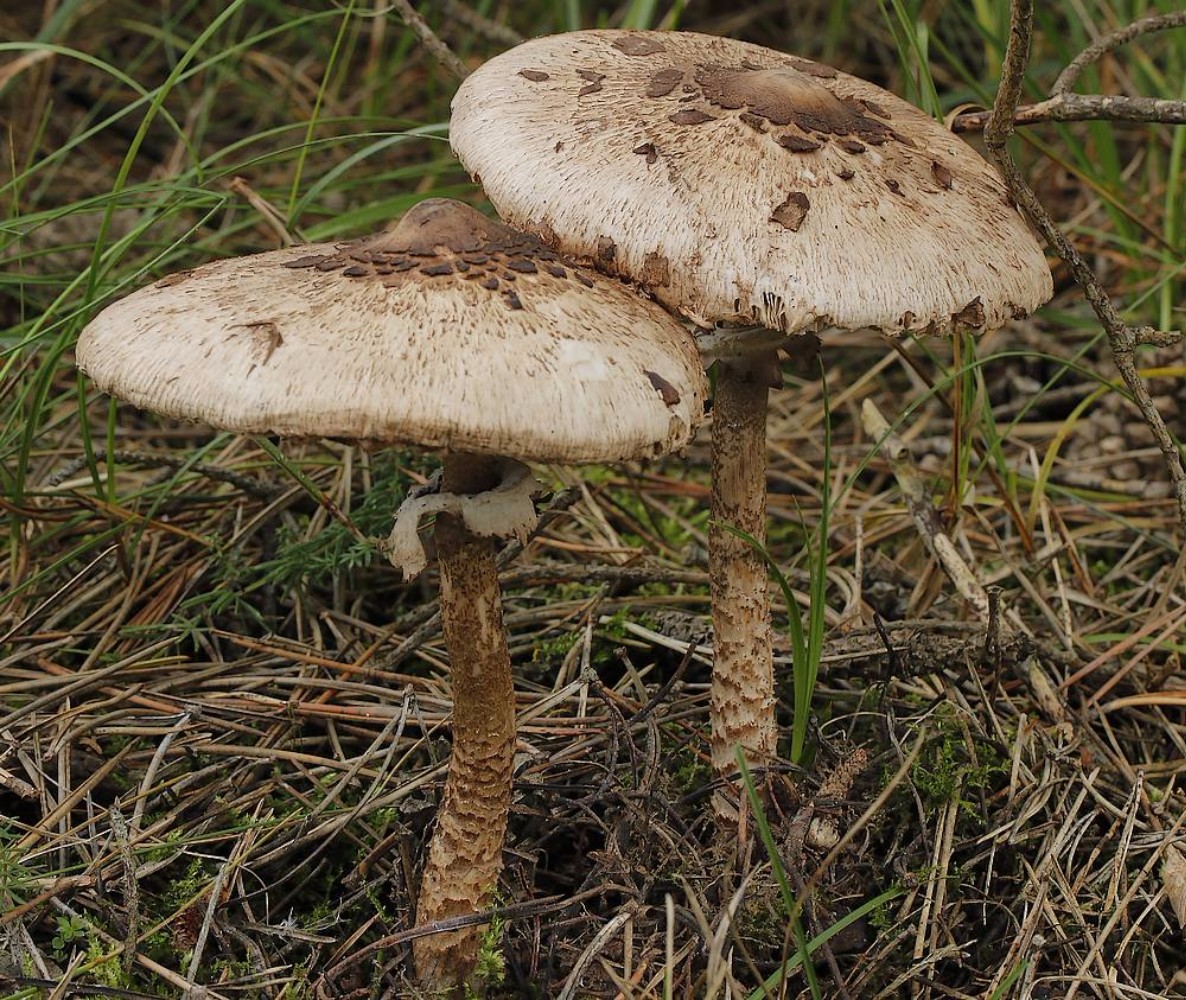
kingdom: Fungi
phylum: Basidiomycota
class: Agaricomycetes
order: Agaricales
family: Agaricaceae
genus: Macrolepiota
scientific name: Macrolepiota
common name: kæmpeparasolhat
